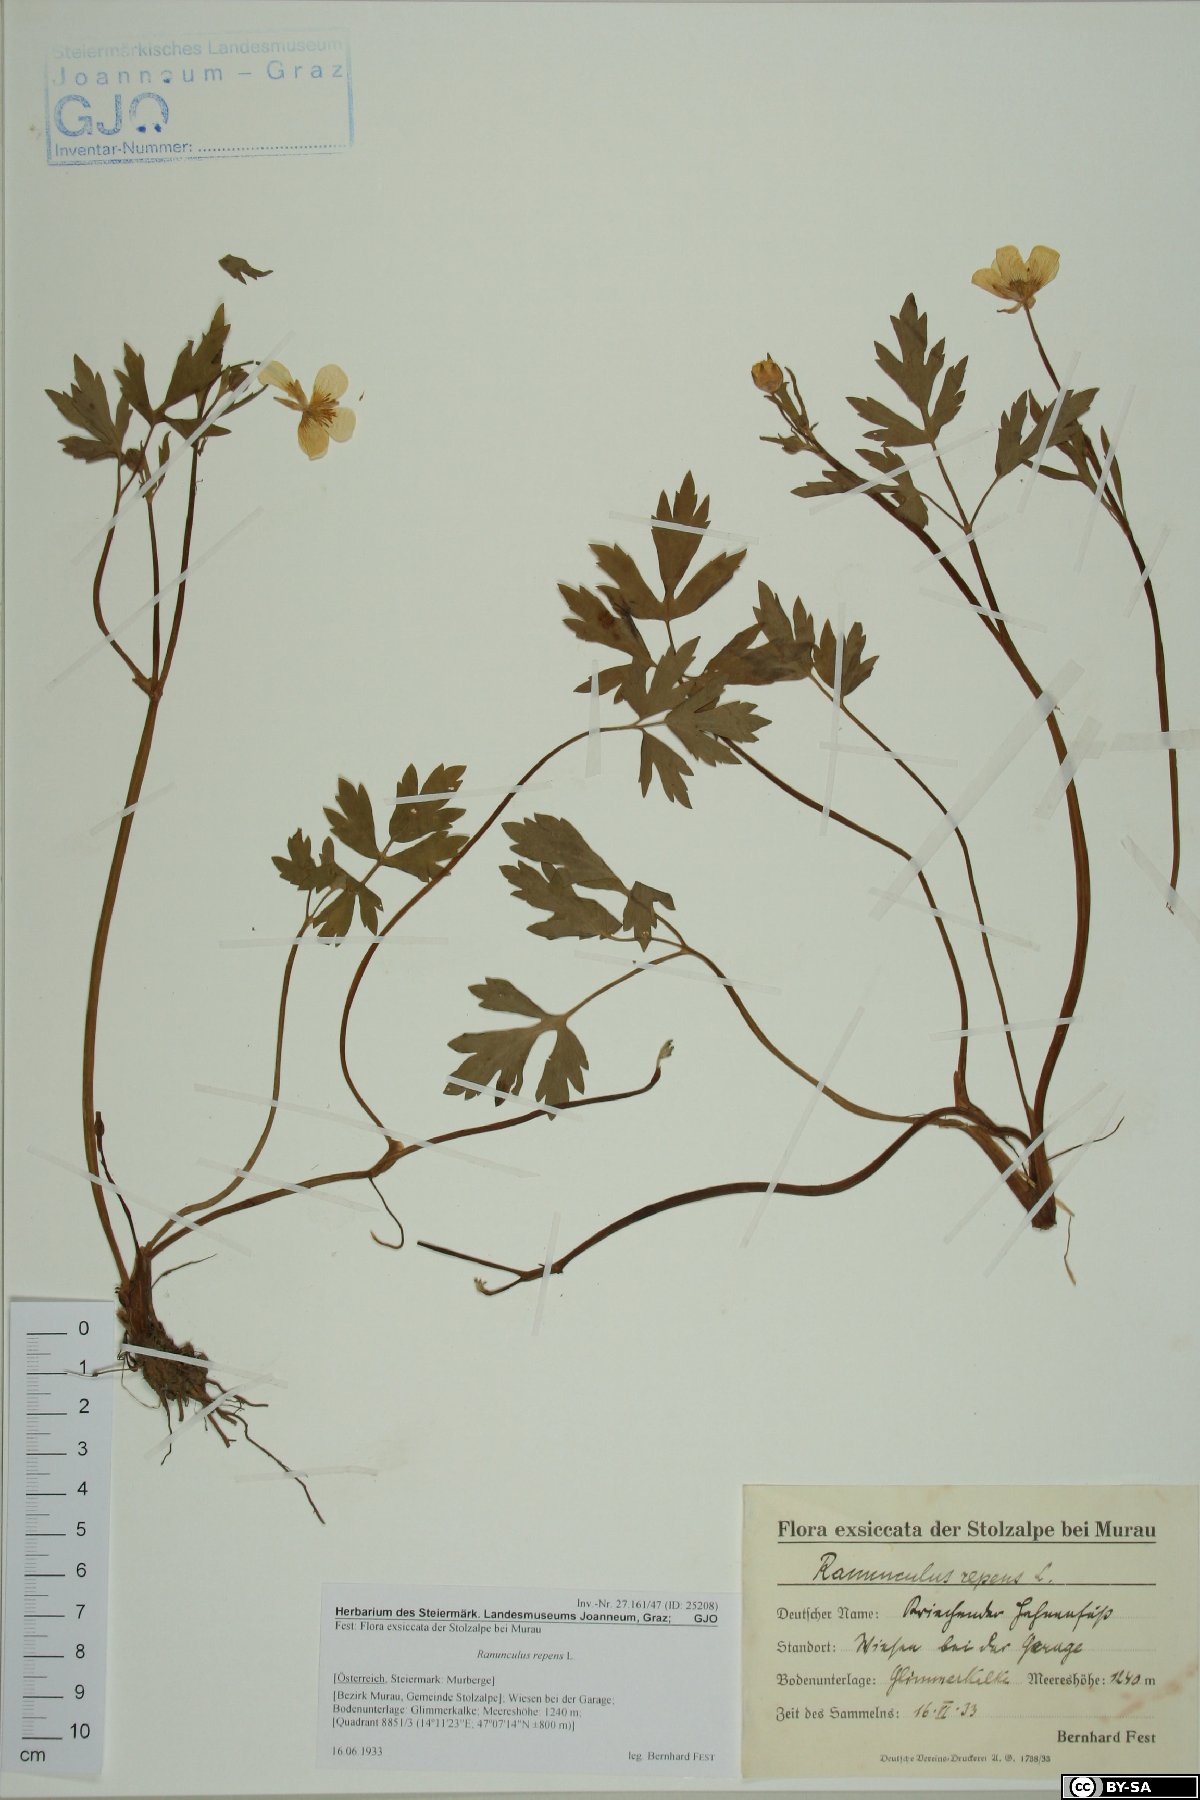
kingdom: Plantae
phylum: Tracheophyta
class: Magnoliopsida
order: Ranunculales
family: Ranunculaceae
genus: Ranunculus
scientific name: Ranunculus repens
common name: Creeping buttercup
